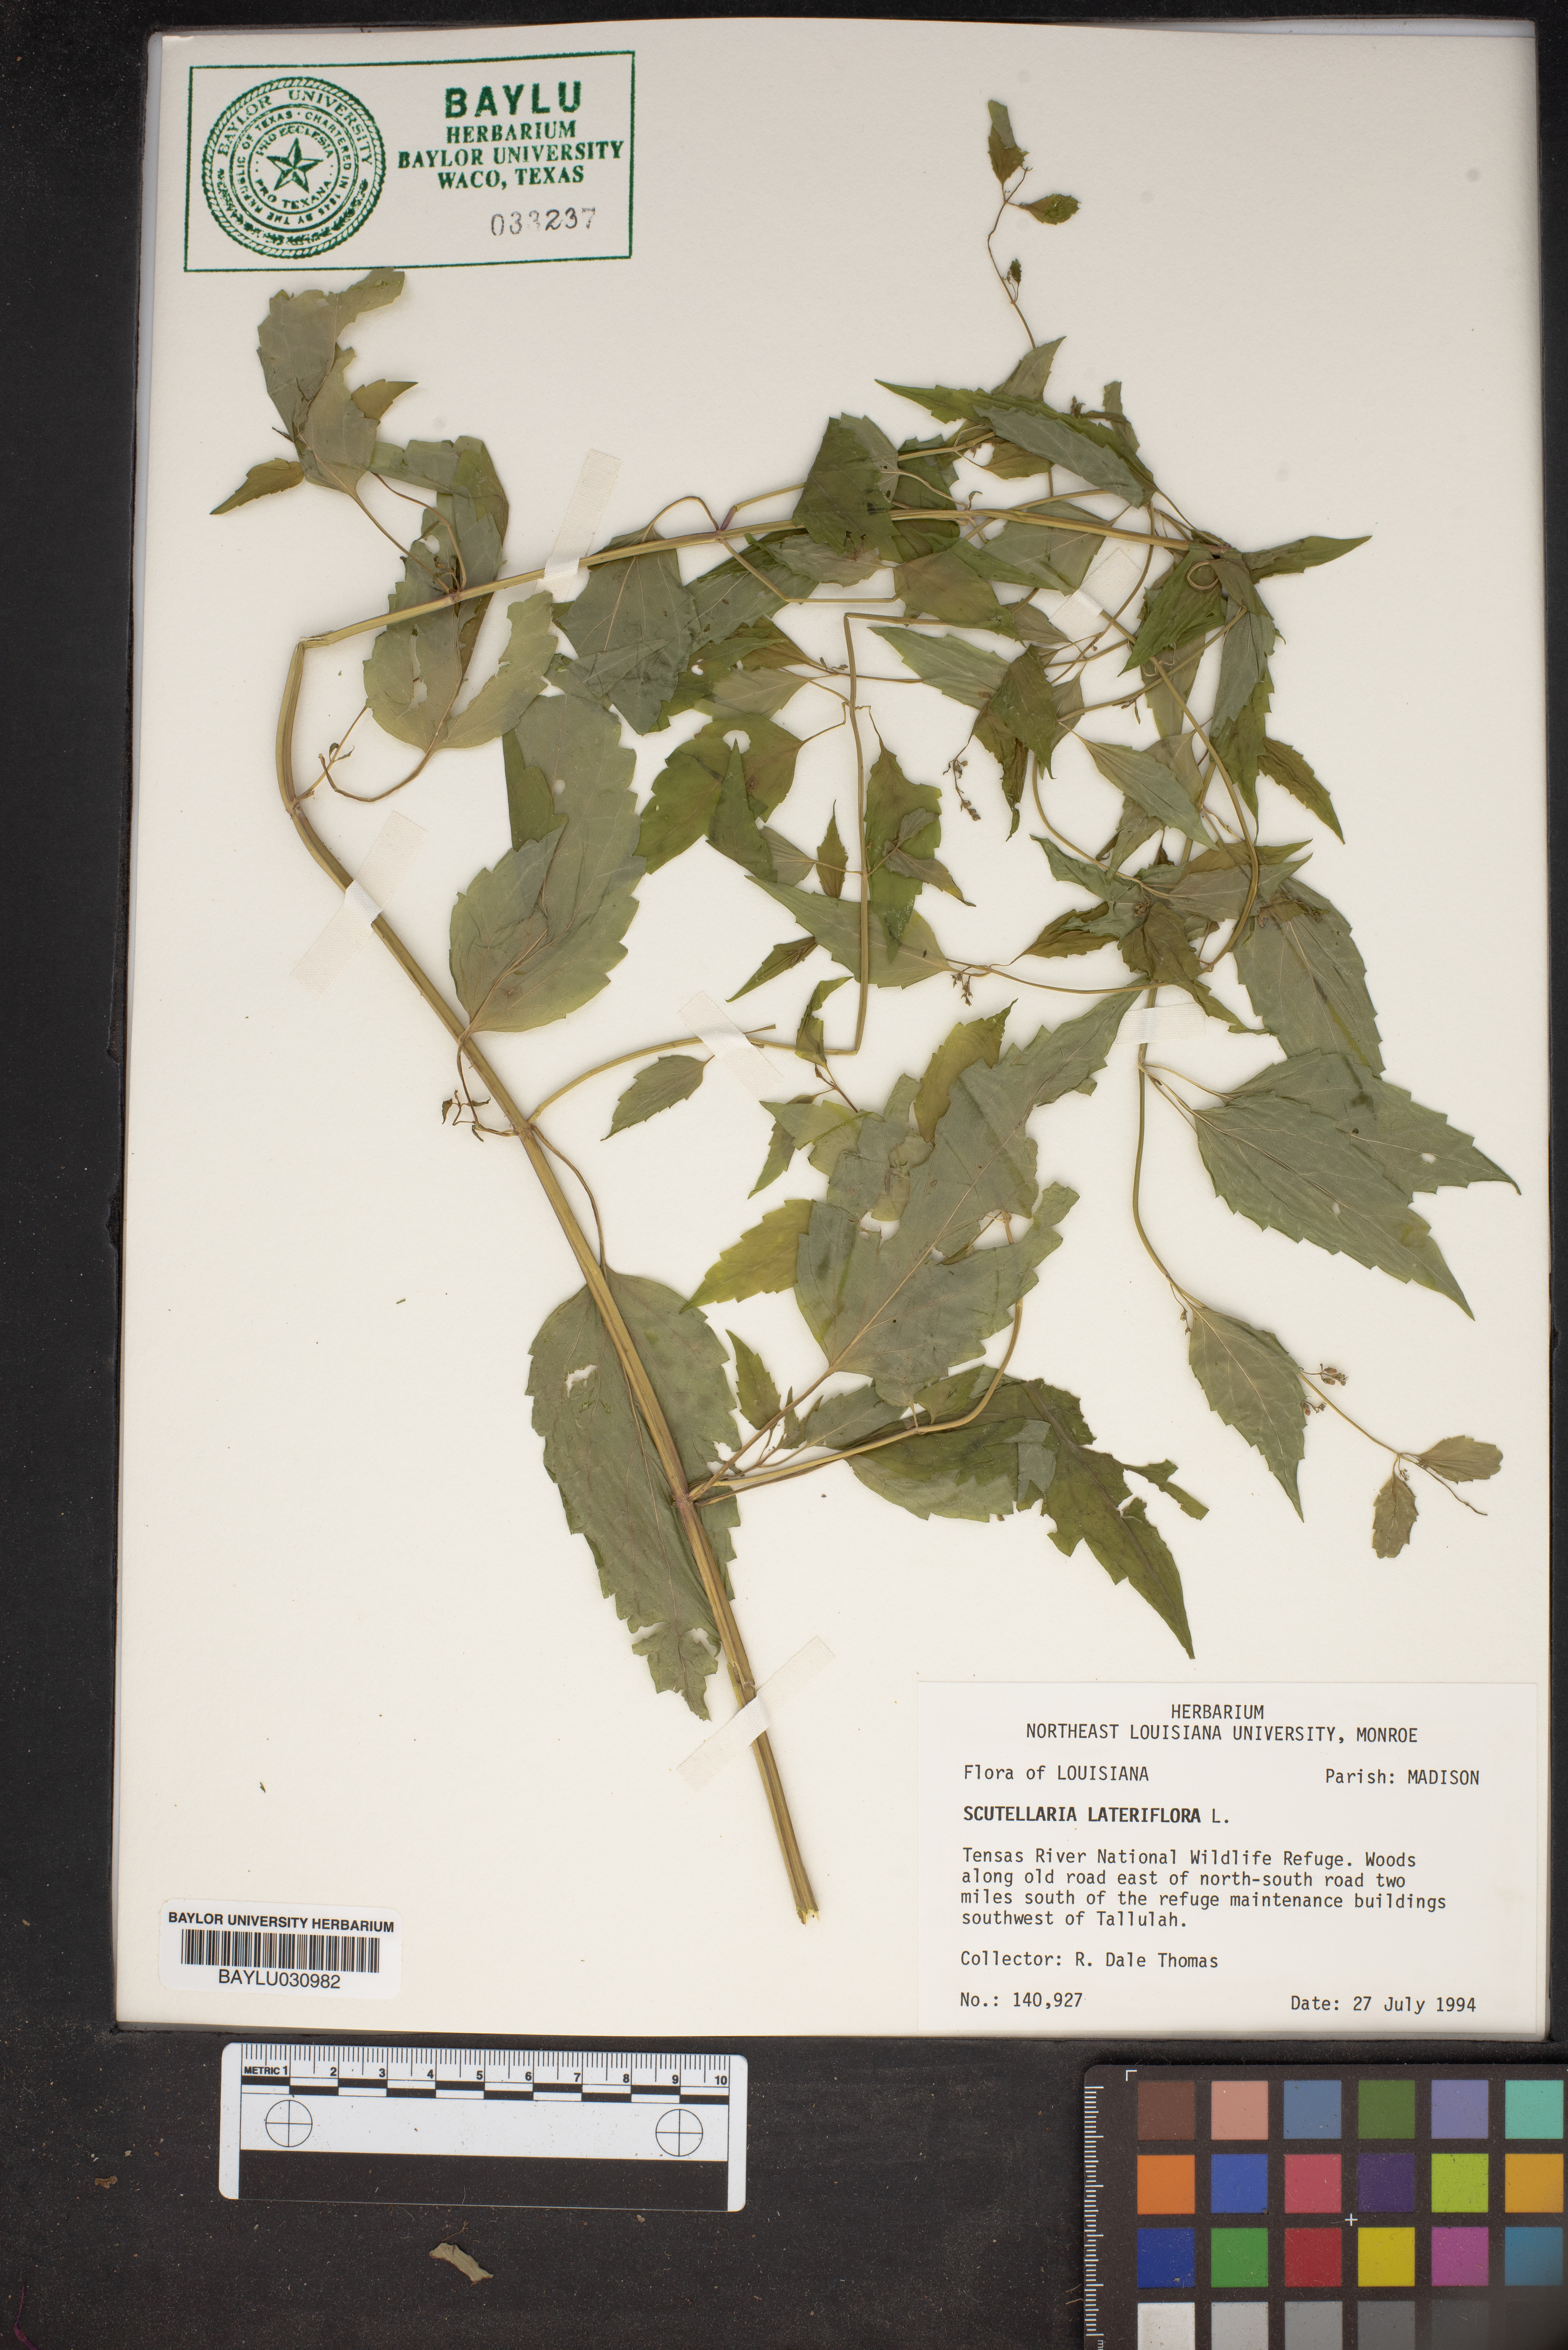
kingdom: Plantae
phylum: Tracheophyta
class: Magnoliopsida
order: Lamiales
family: Lamiaceae
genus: Scutellaria
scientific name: Scutellaria lateriflora
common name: Blue skullcap
